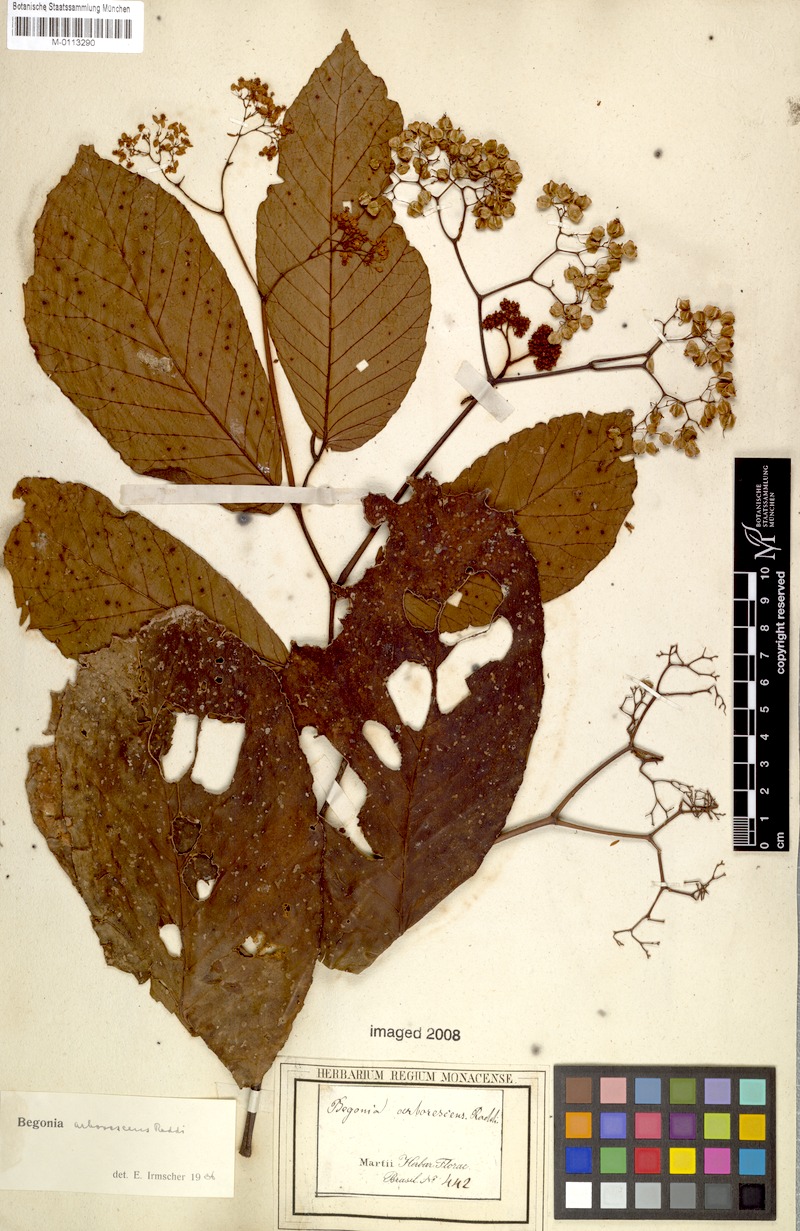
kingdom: Plantae
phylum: Tracheophyta
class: Magnoliopsida
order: Cucurbitales
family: Begoniaceae
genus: Begonia
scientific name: Begonia arborescens
